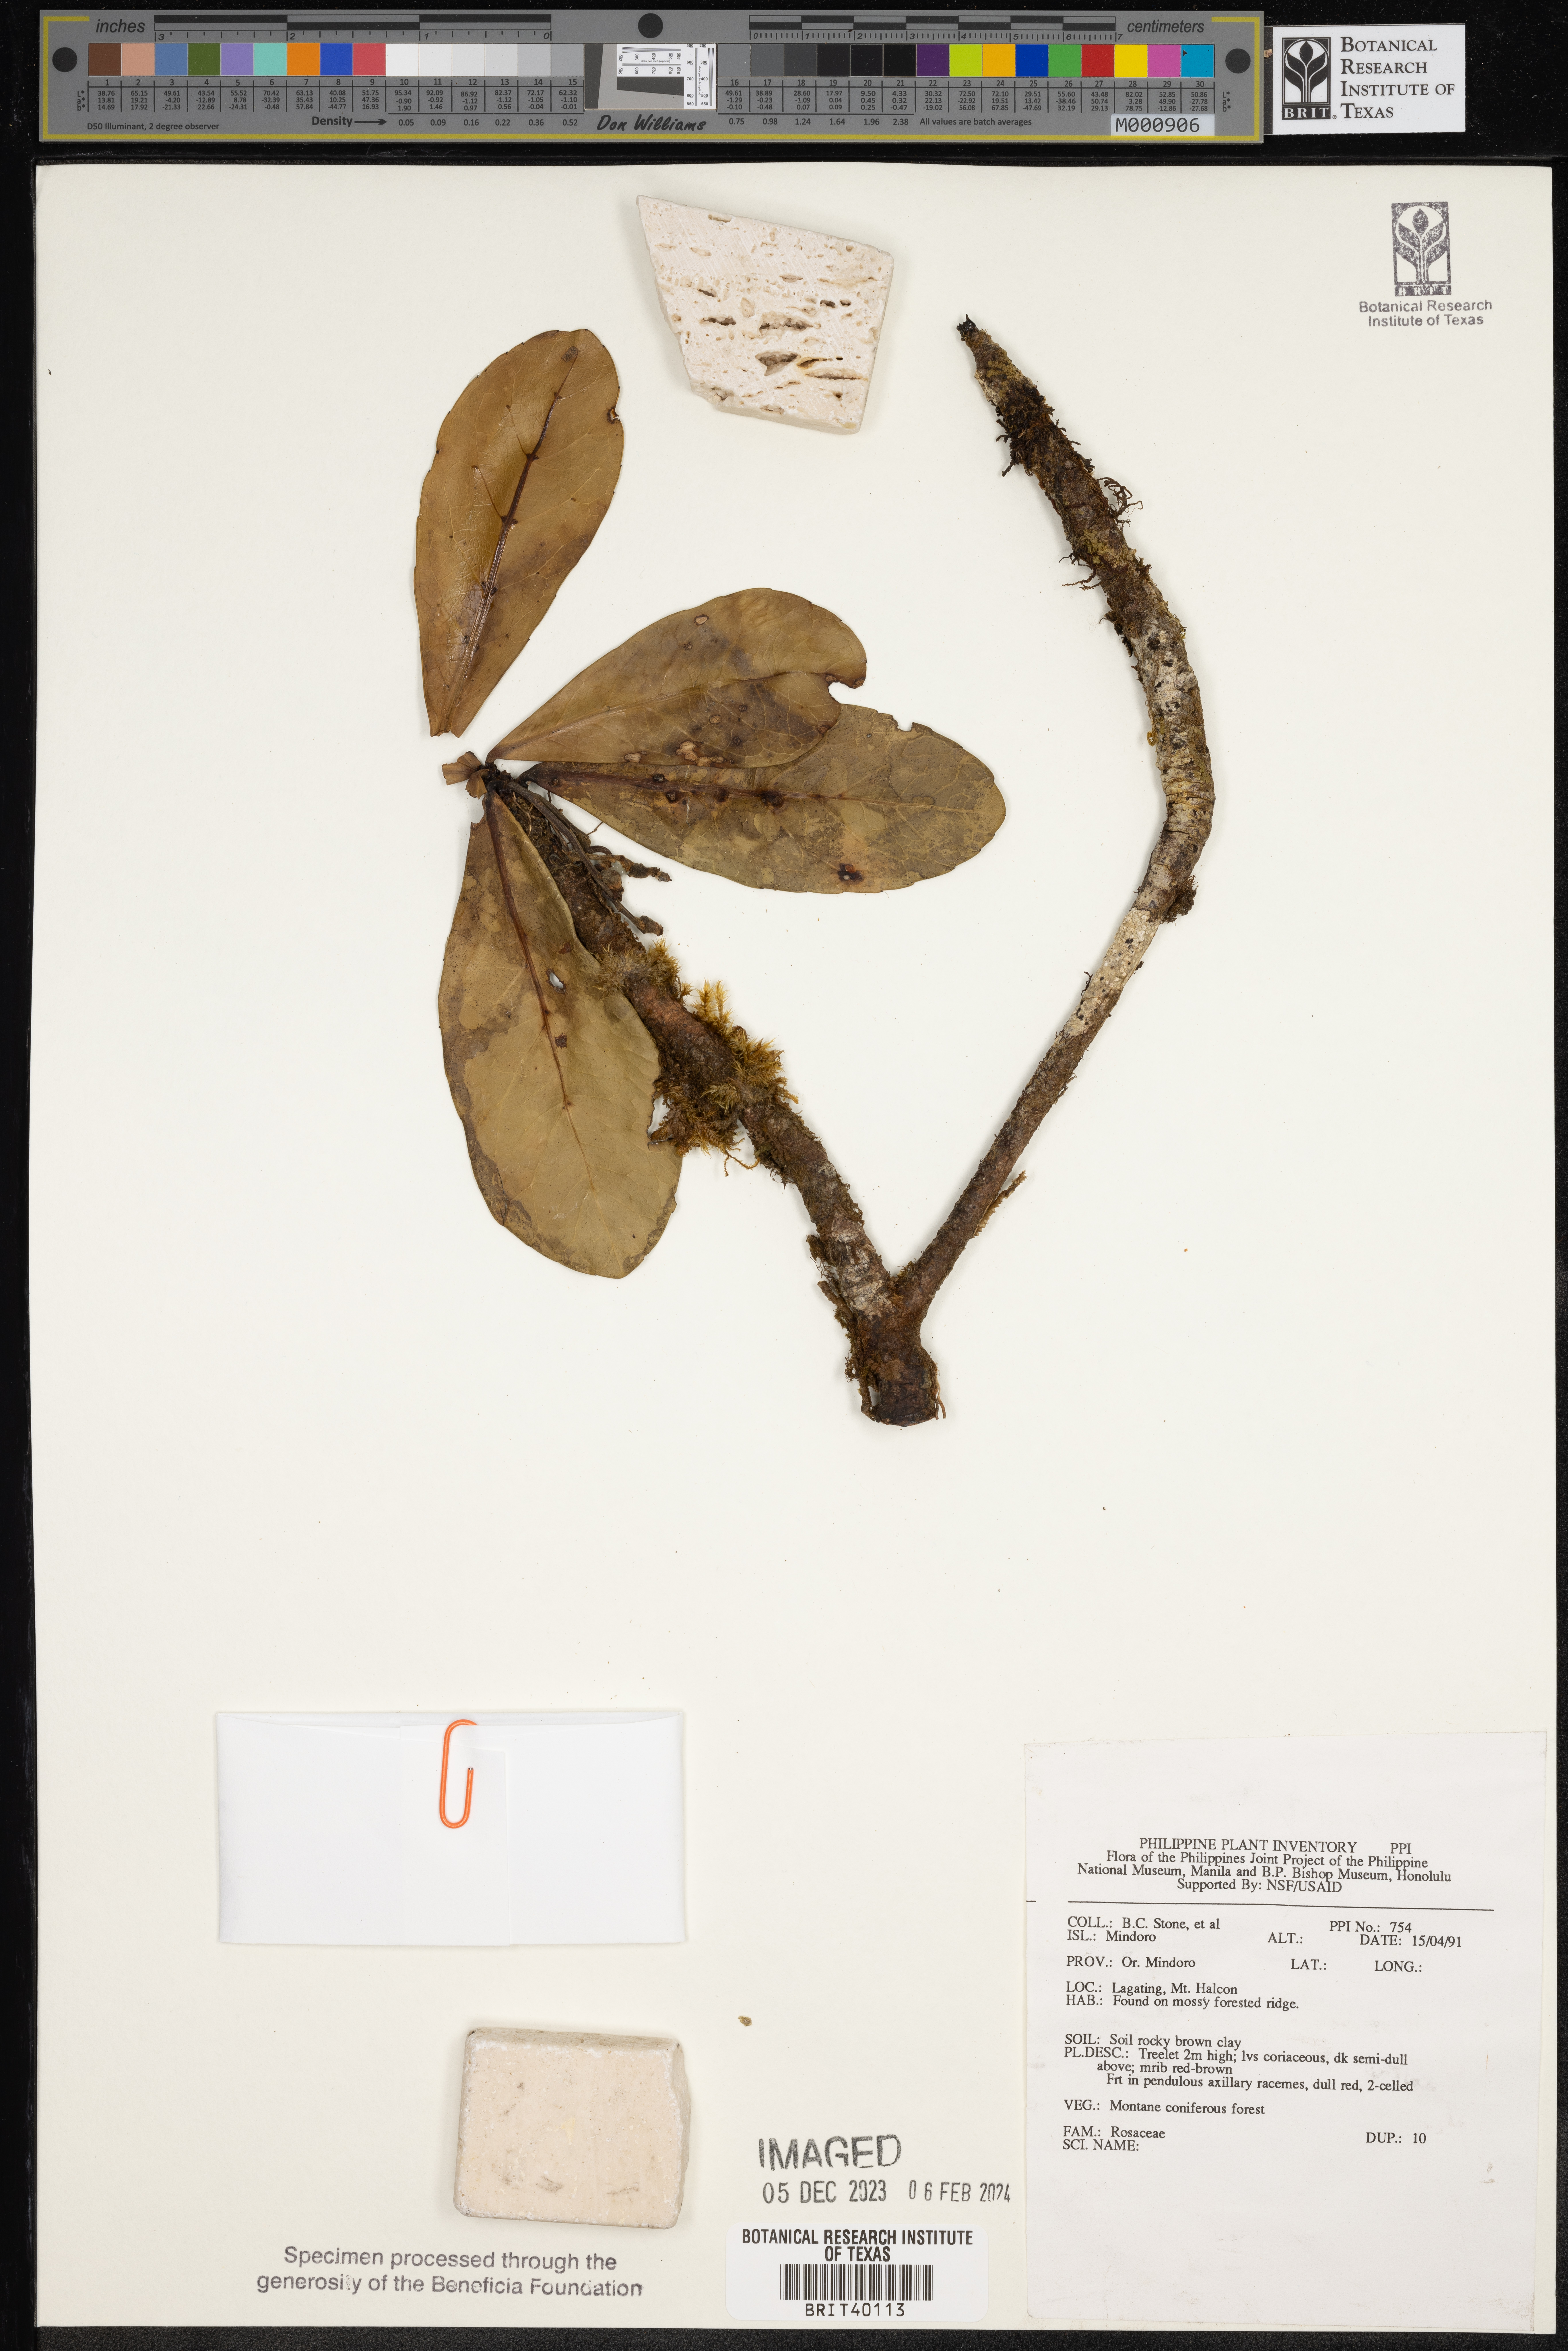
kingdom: Plantae
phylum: Tracheophyta
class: Magnoliopsida
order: Rosales
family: Rosaceae
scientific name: Rosaceae
